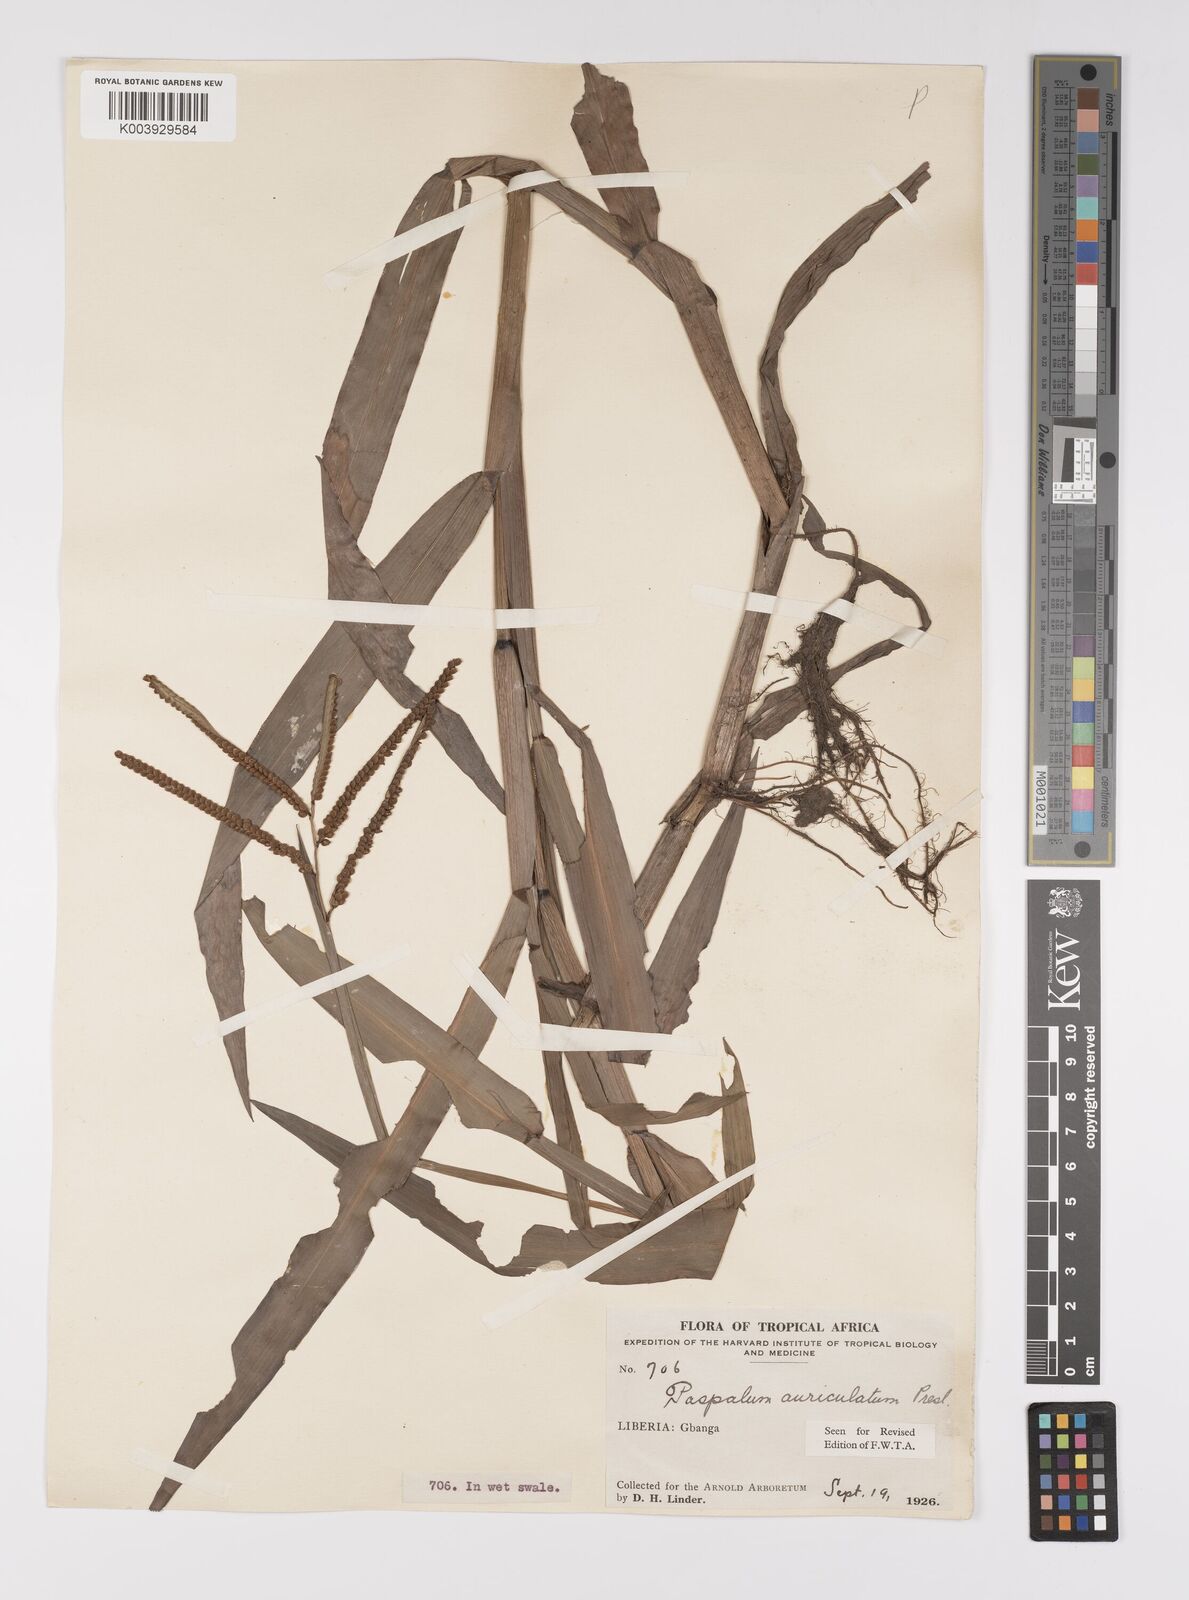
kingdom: Plantae
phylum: Tracheophyta
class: Liliopsida
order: Poales
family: Poaceae
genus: Paspalum
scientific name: Paspalum lamprocaryon
